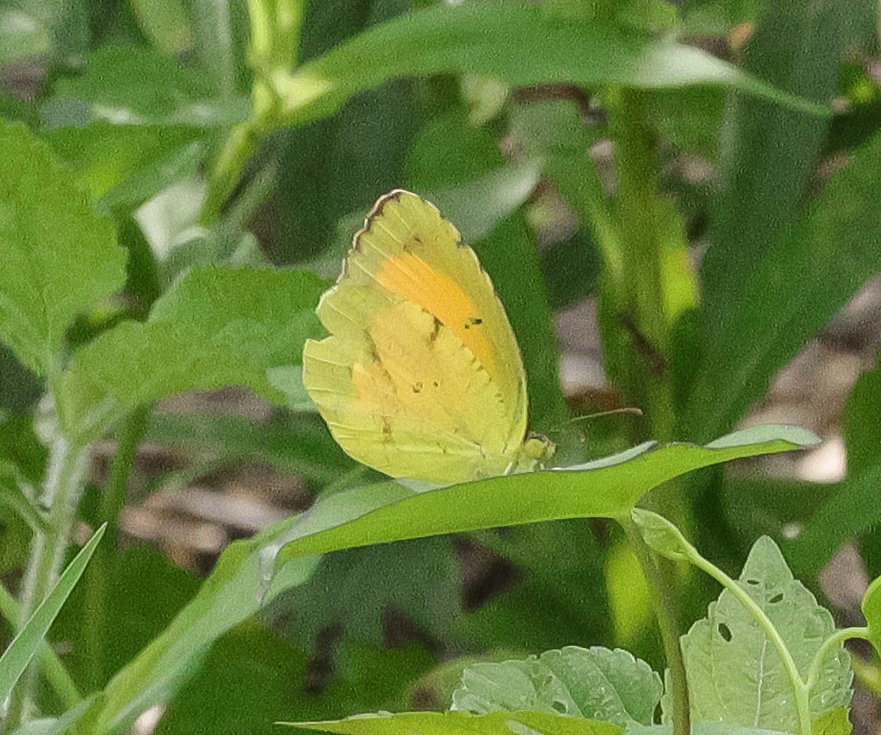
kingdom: Animalia
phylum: Arthropoda
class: Insecta
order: Lepidoptera
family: Pieridae
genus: Abaeis
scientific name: Abaeis nicippe
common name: Sleepy Orange
